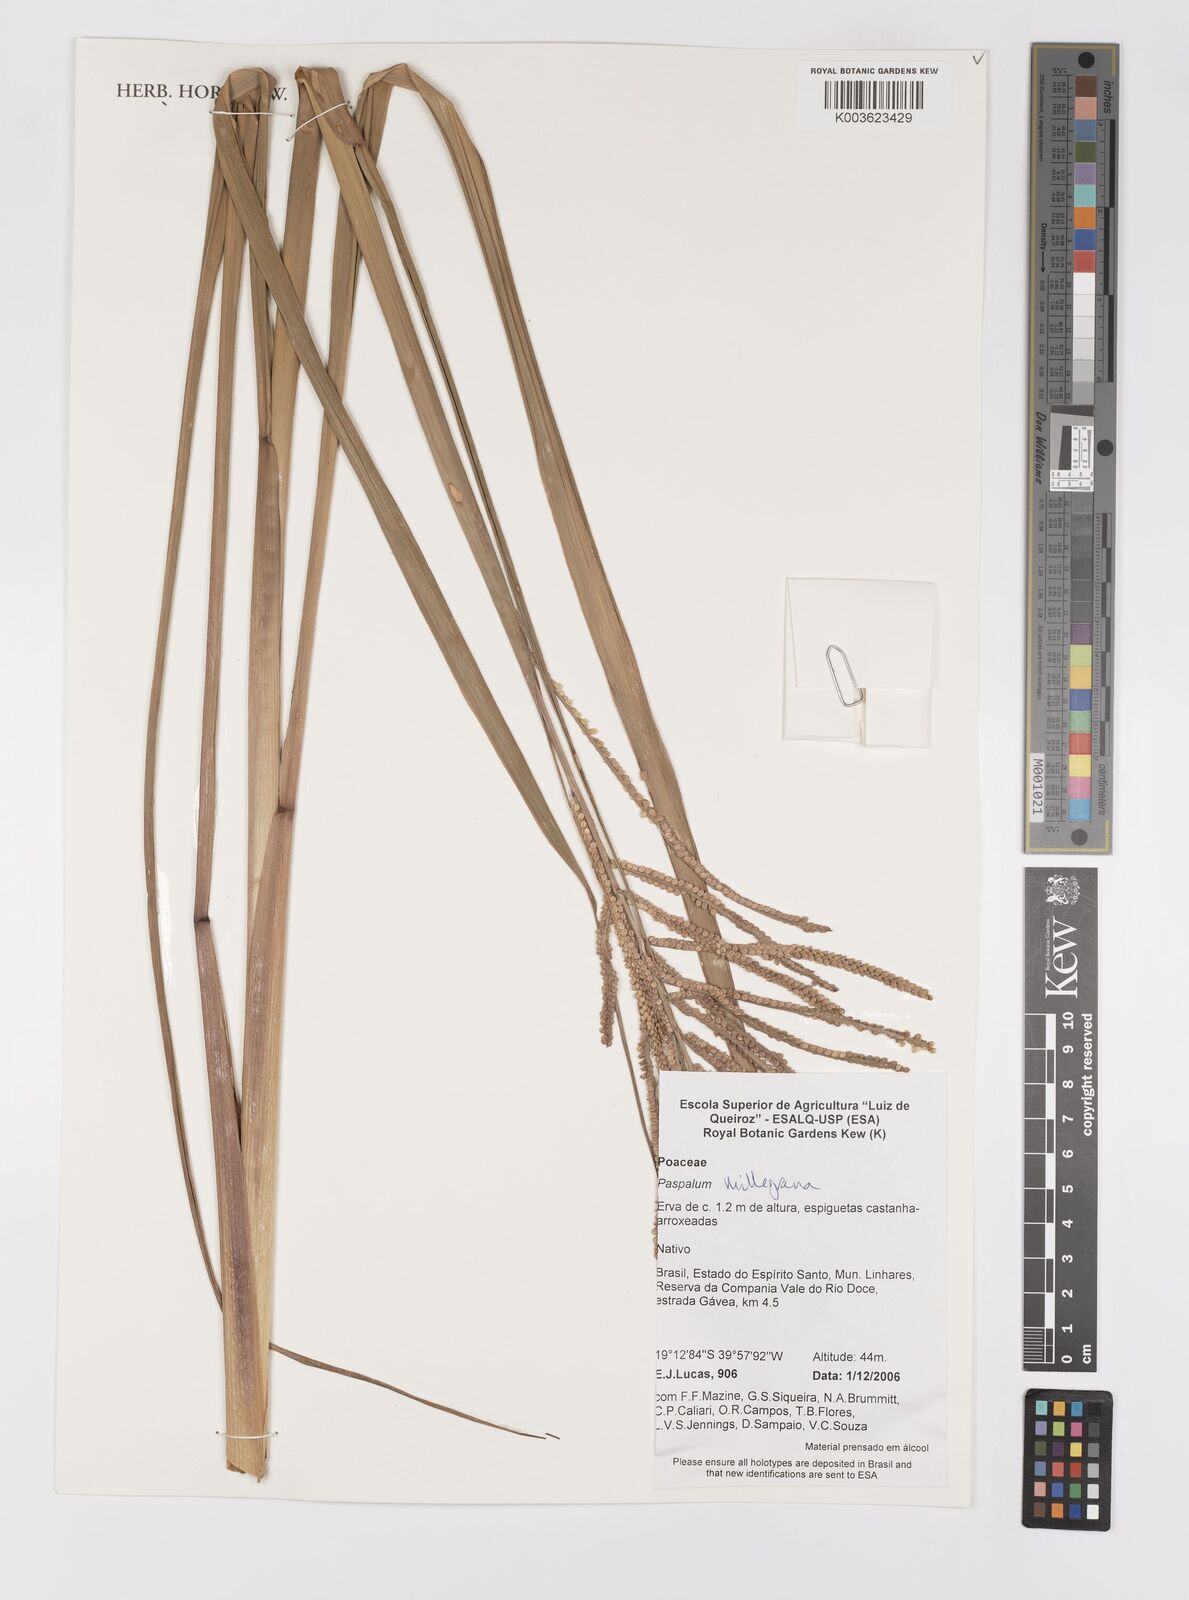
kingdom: Plantae
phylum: Tracheophyta
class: Liliopsida
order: Poales
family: Poaceae
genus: Paspalum
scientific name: Paspalum millegranum
